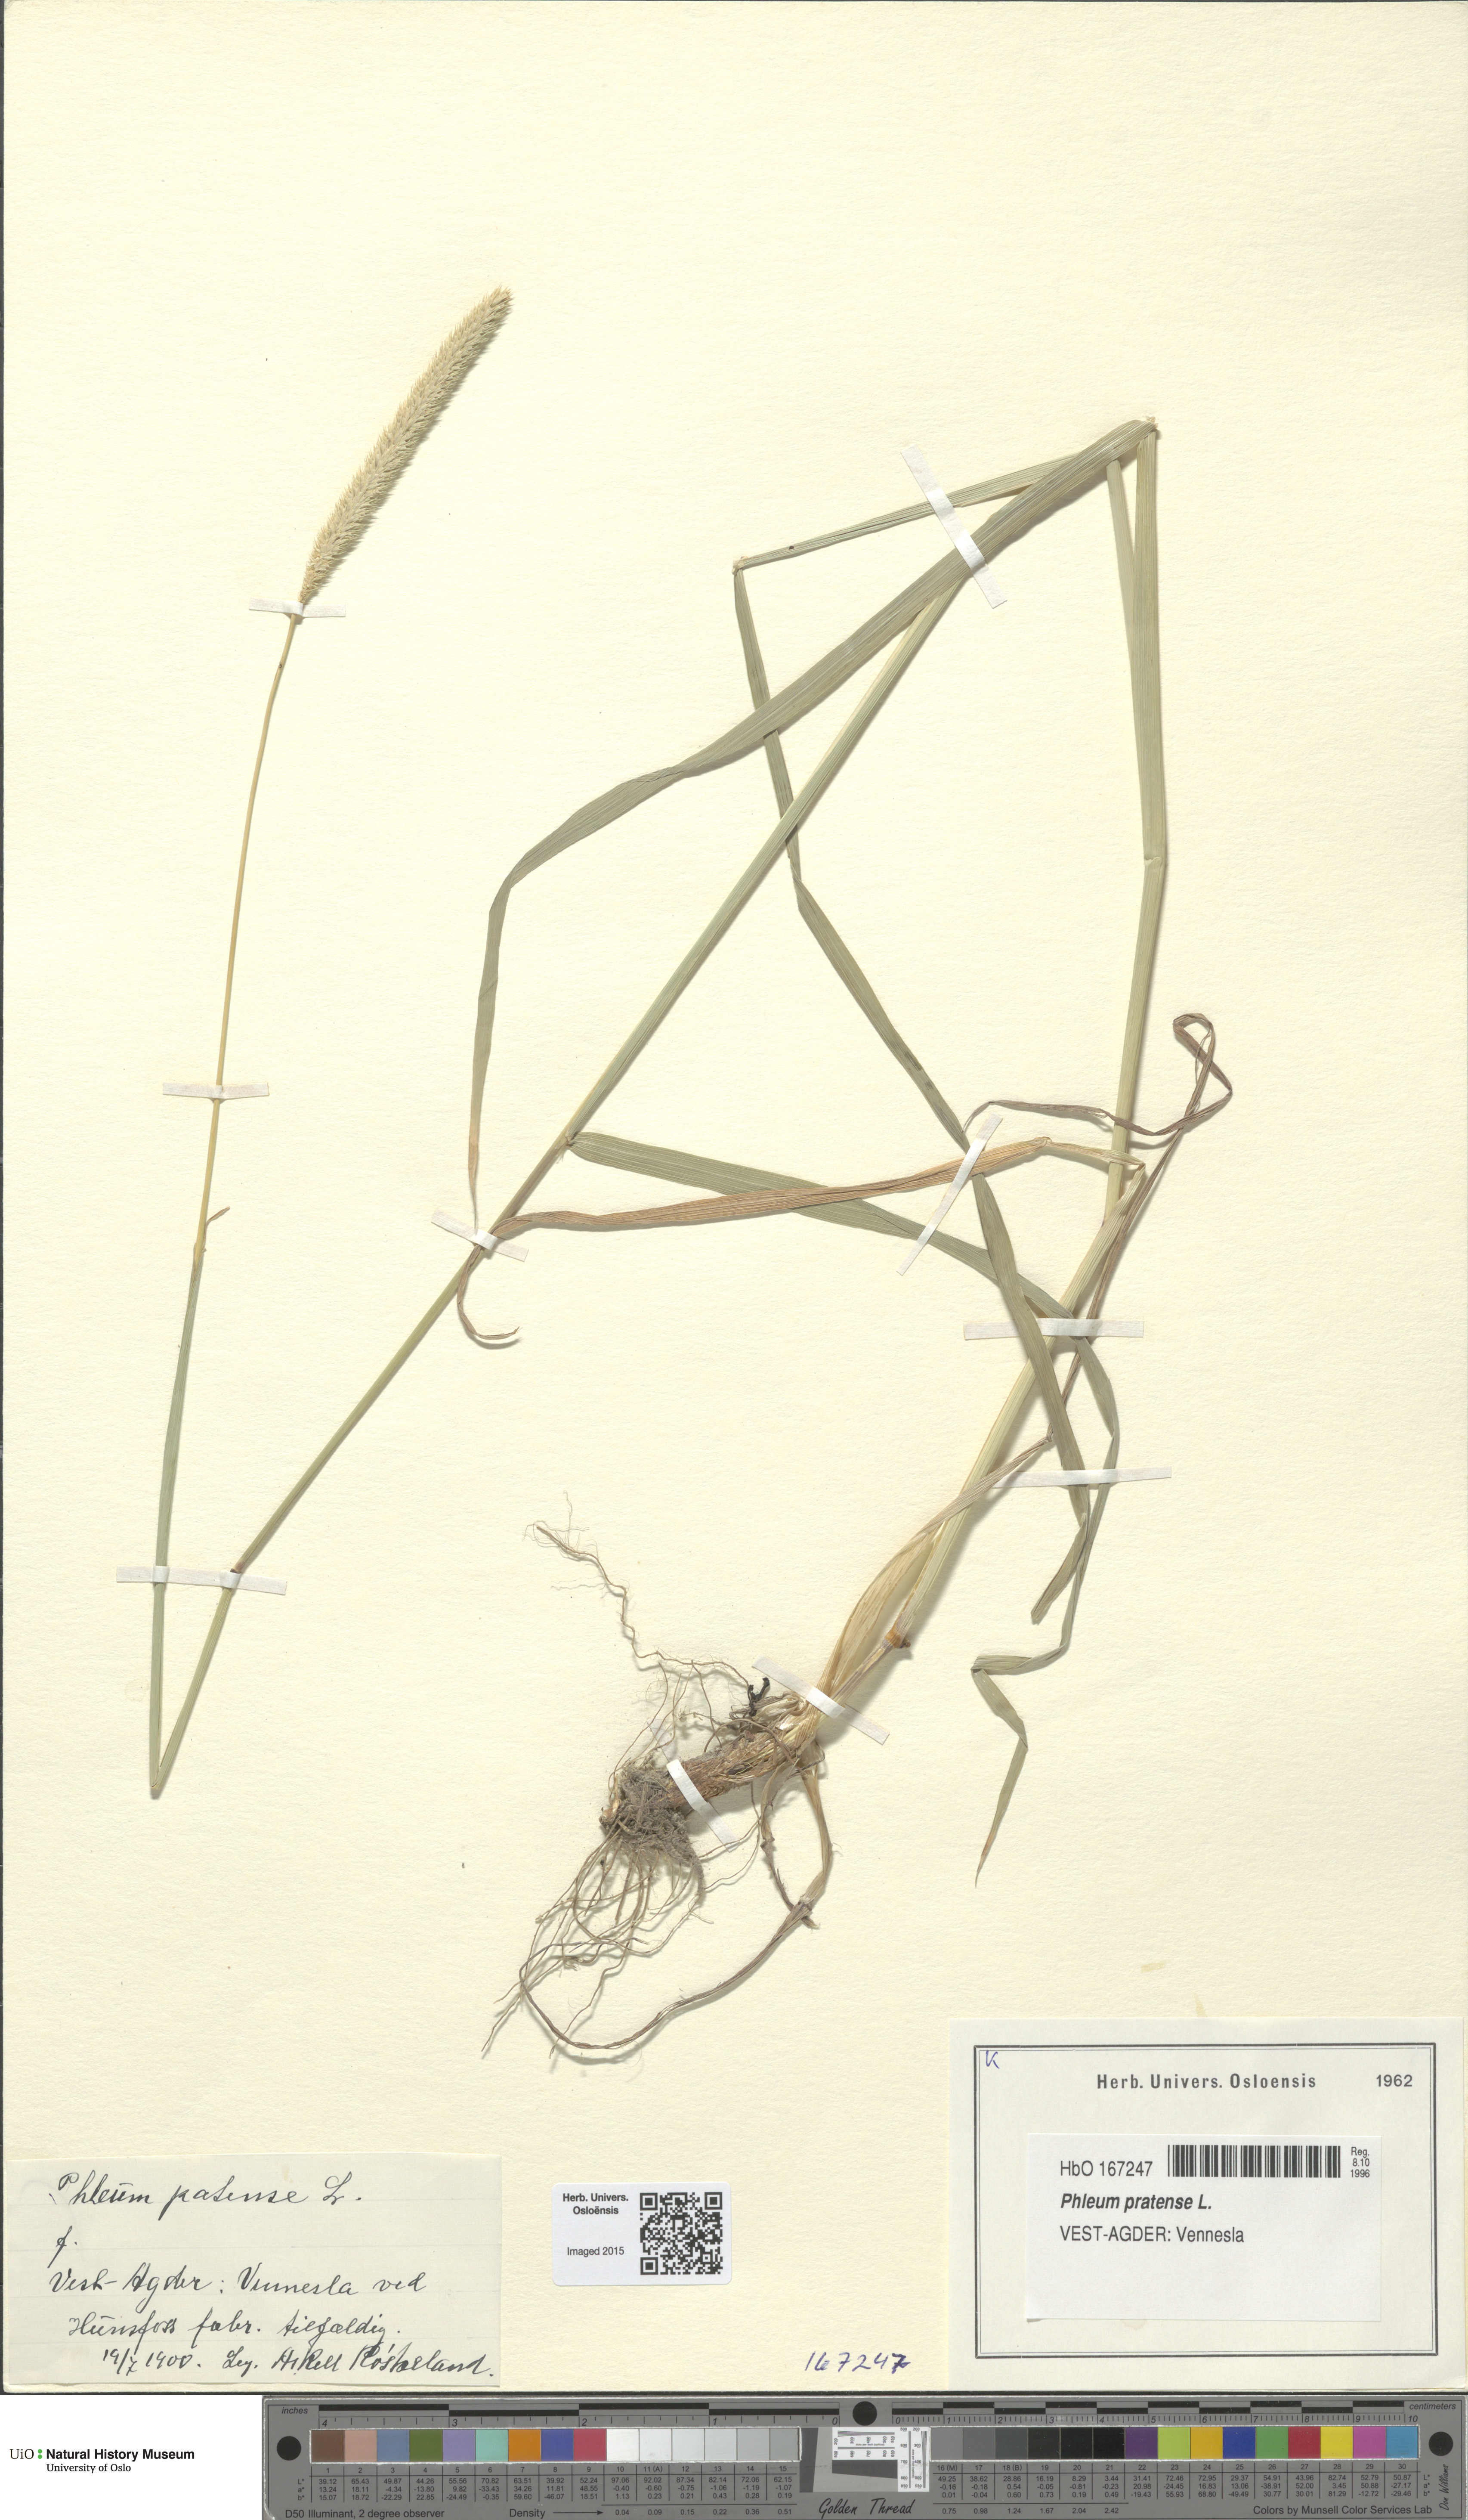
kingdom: Plantae
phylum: Tracheophyta
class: Liliopsida
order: Poales
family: Poaceae
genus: Phleum
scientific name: Phleum pratense
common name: Timothy grass
